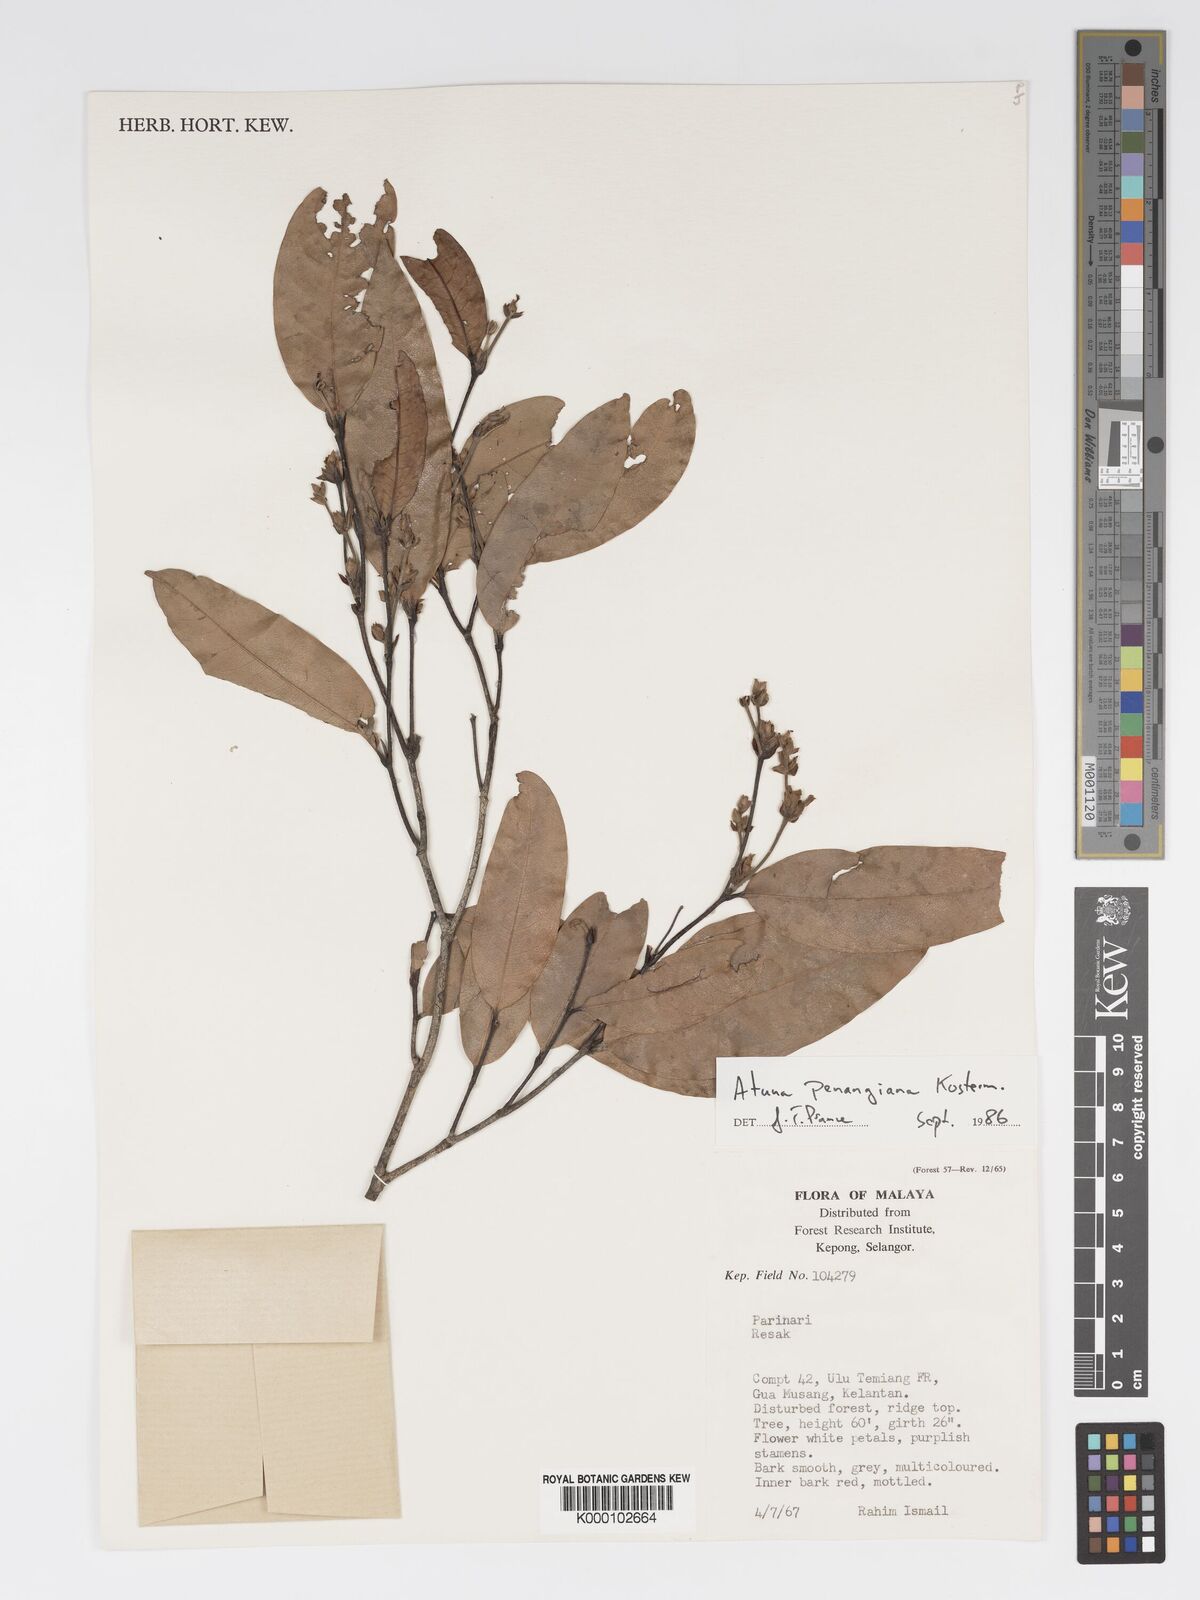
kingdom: Plantae
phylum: Tracheophyta
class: Magnoliopsida
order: Malpighiales
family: Chrysobalanaceae
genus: Atuna
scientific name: Atuna penangiana
